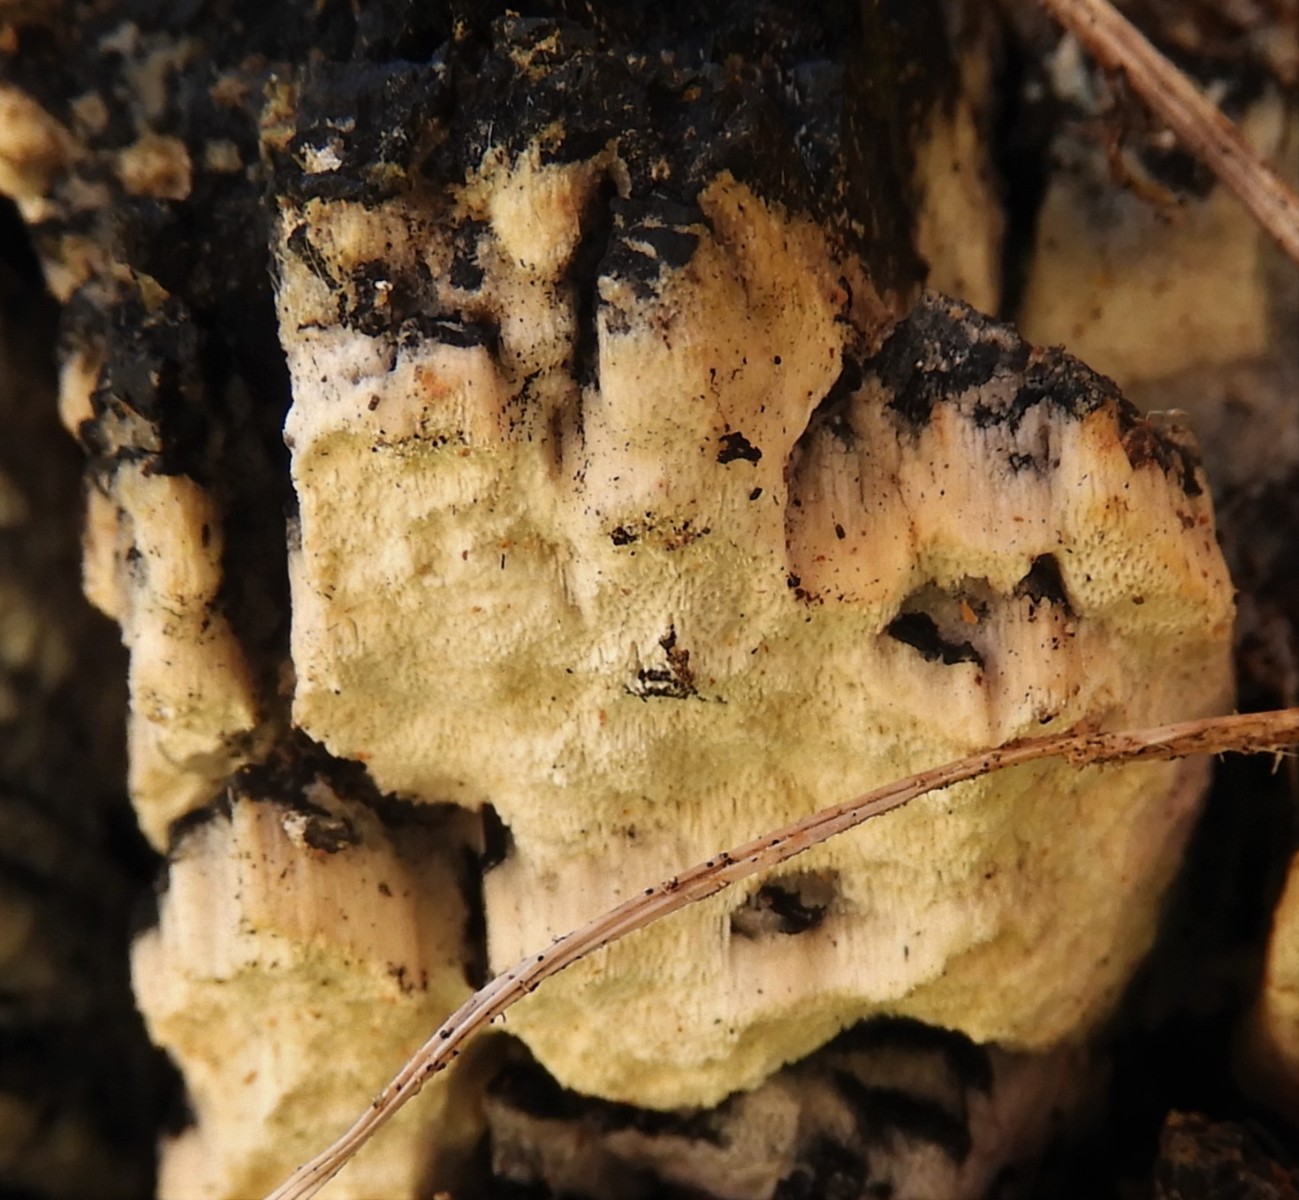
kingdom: Fungi
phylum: Basidiomycota
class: Agaricomycetes
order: Polyporales
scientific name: Polyporales
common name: poresvampordenen
